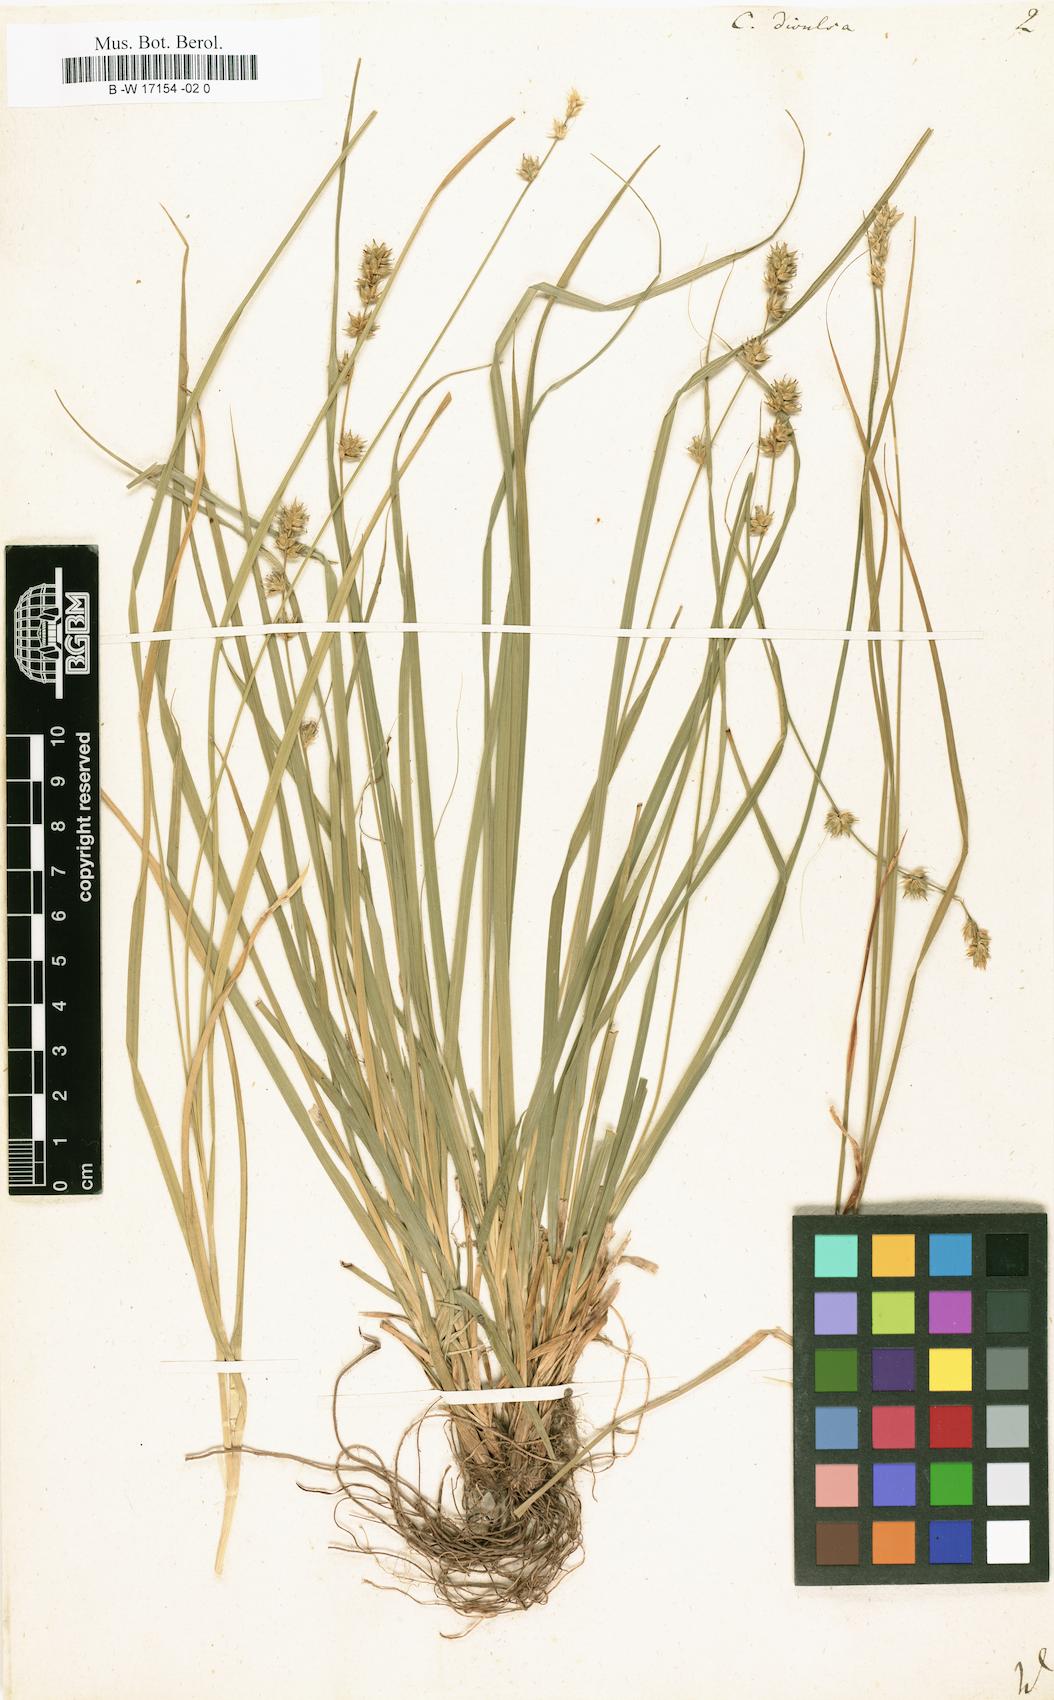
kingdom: Plantae
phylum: Tracheophyta
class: Liliopsida
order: Poales
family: Cyperaceae
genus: Carex
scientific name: Carex divulsa
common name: Grassland sedge
